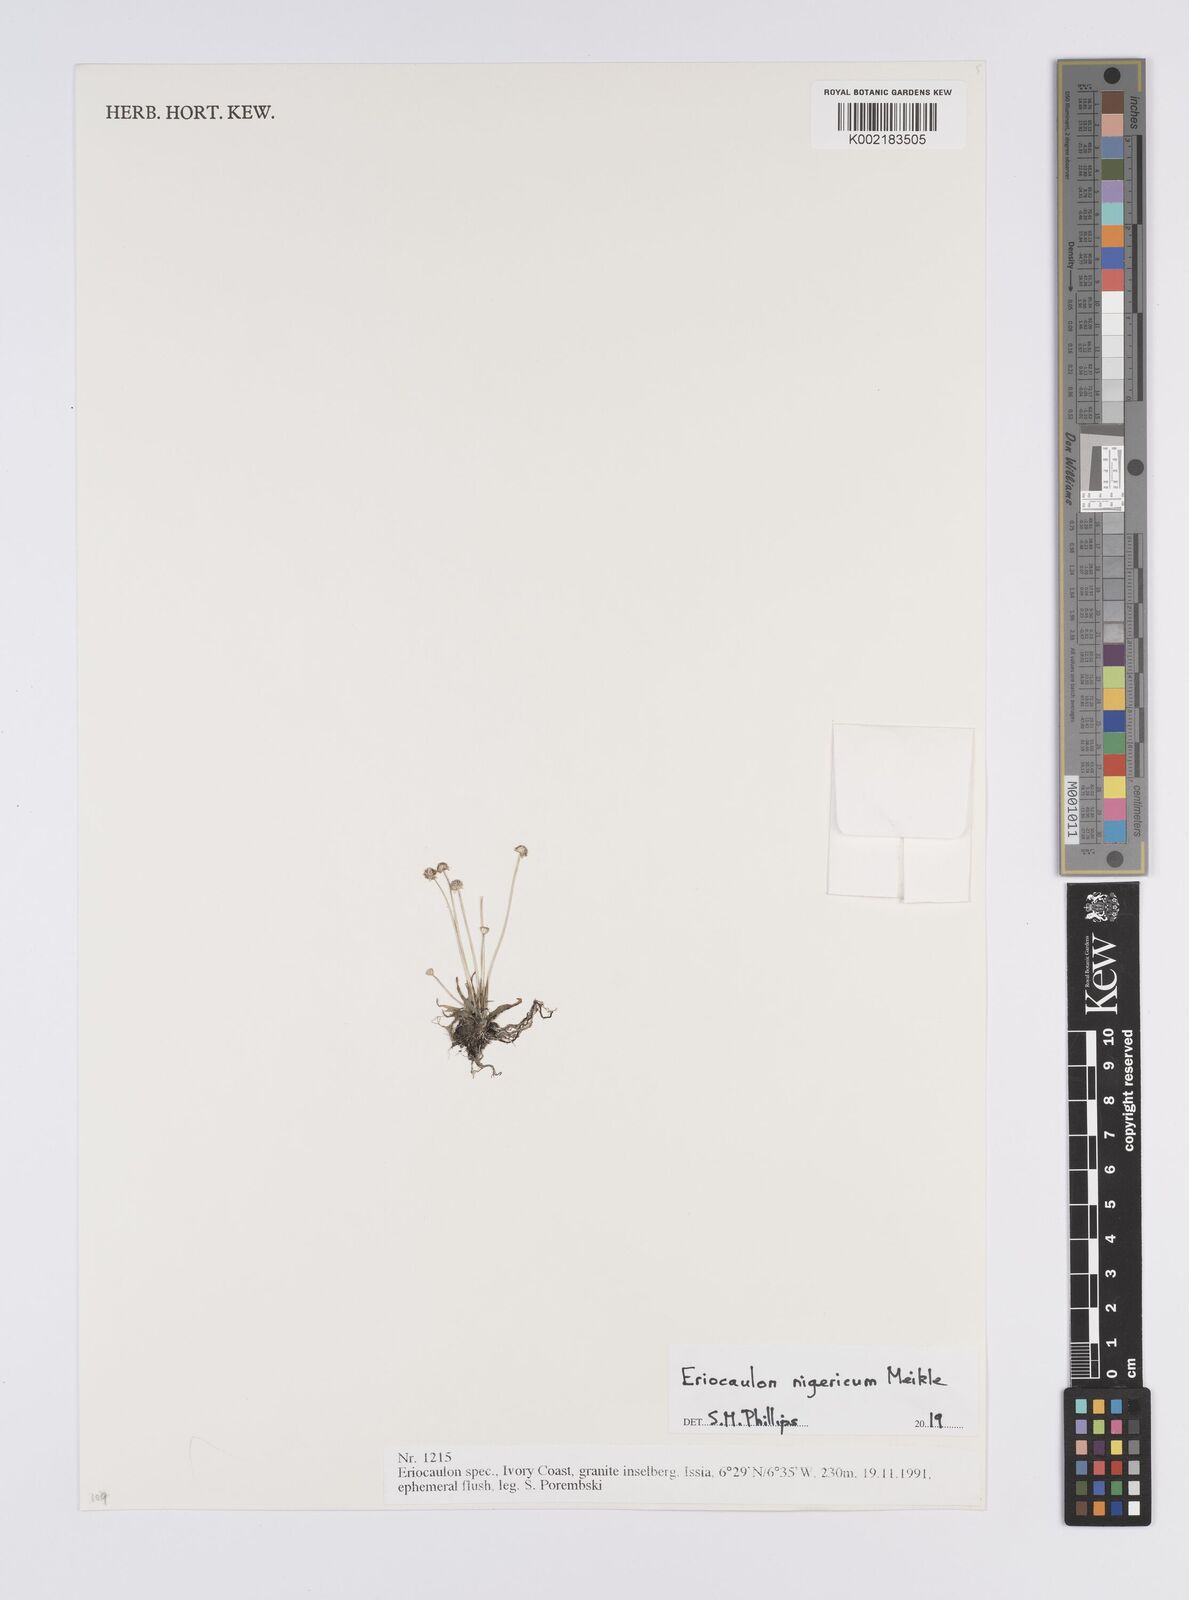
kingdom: Plantae
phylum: Tracheophyta
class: Liliopsida
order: Poales
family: Eriocaulaceae
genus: Eriocaulon
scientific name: Eriocaulon nigericum
